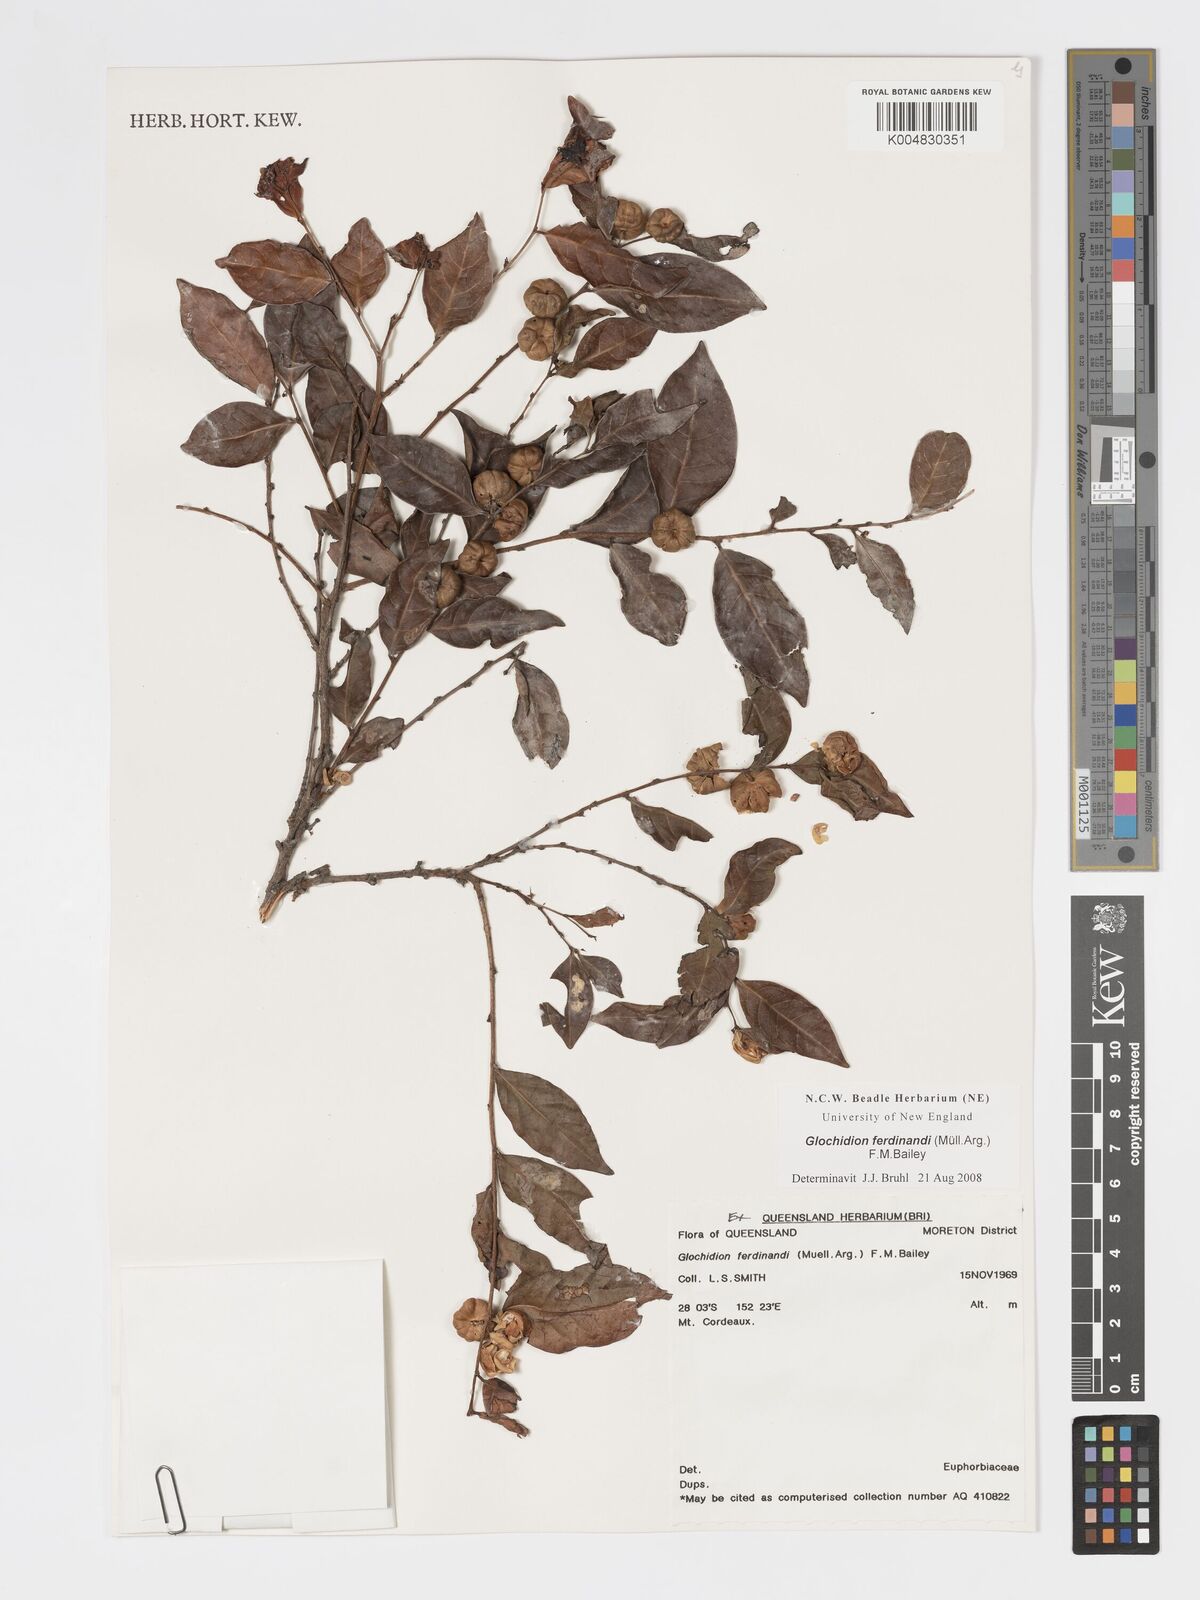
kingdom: Plantae
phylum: Tracheophyta
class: Magnoliopsida
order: Malpighiales
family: Phyllanthaceae
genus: Glochidion
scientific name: Glochidion ferdinandi
